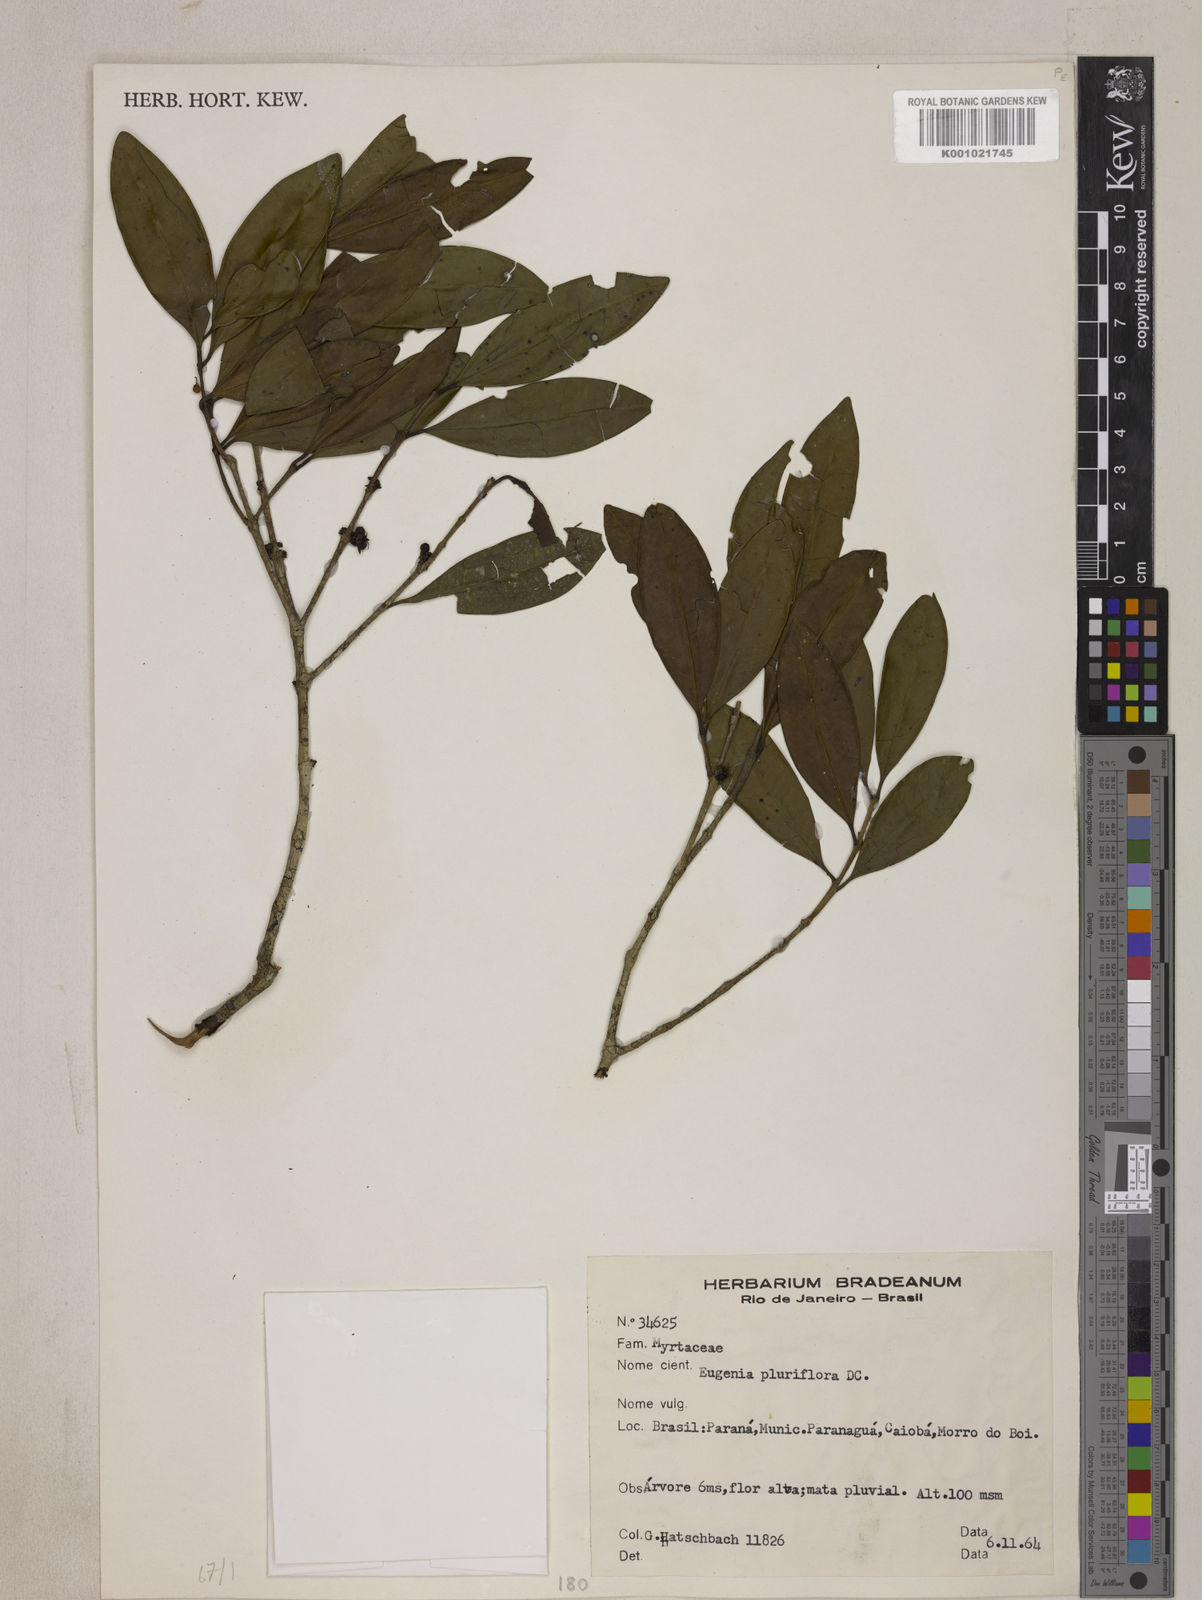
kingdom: Plantae
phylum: Tracheophyta
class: Magnoliopsida
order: Myrtales
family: Myrtaceae
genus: Eugenia
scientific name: Eugenia pluriflora
